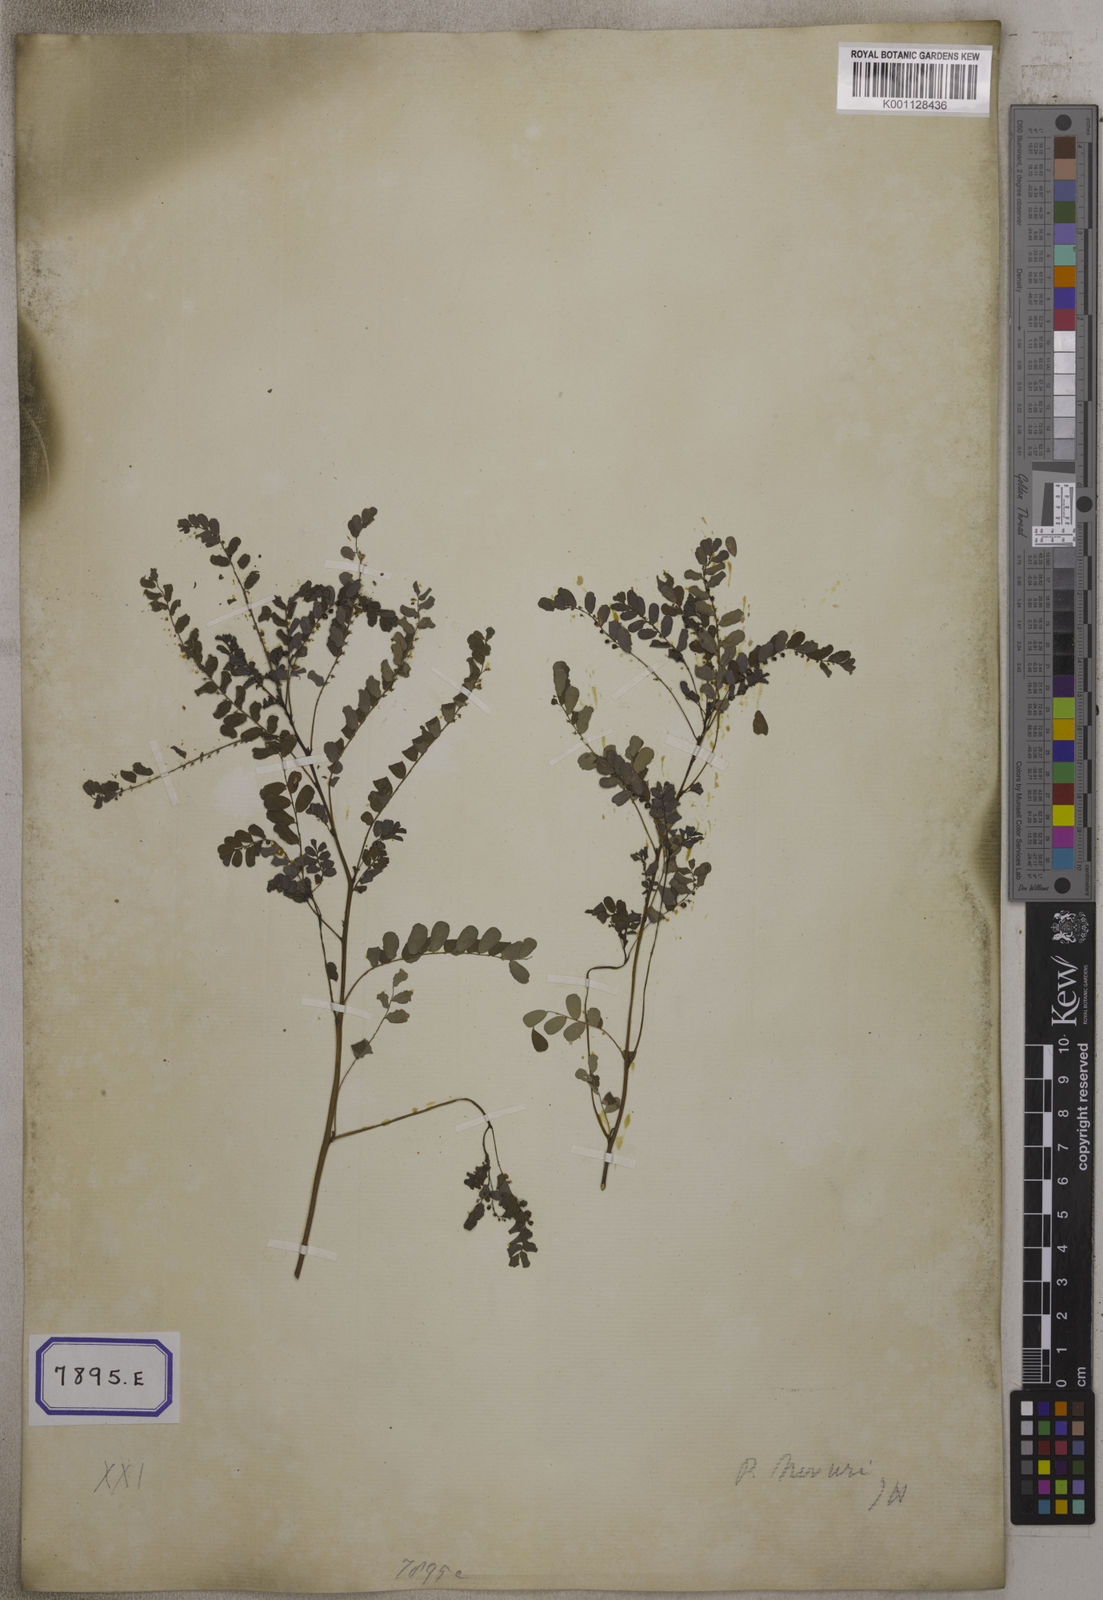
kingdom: Plantae
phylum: Tracheophyta
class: Magnoliopsida
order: Malpighiales
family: Euphorbiaceae
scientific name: Euphorbiaceae
